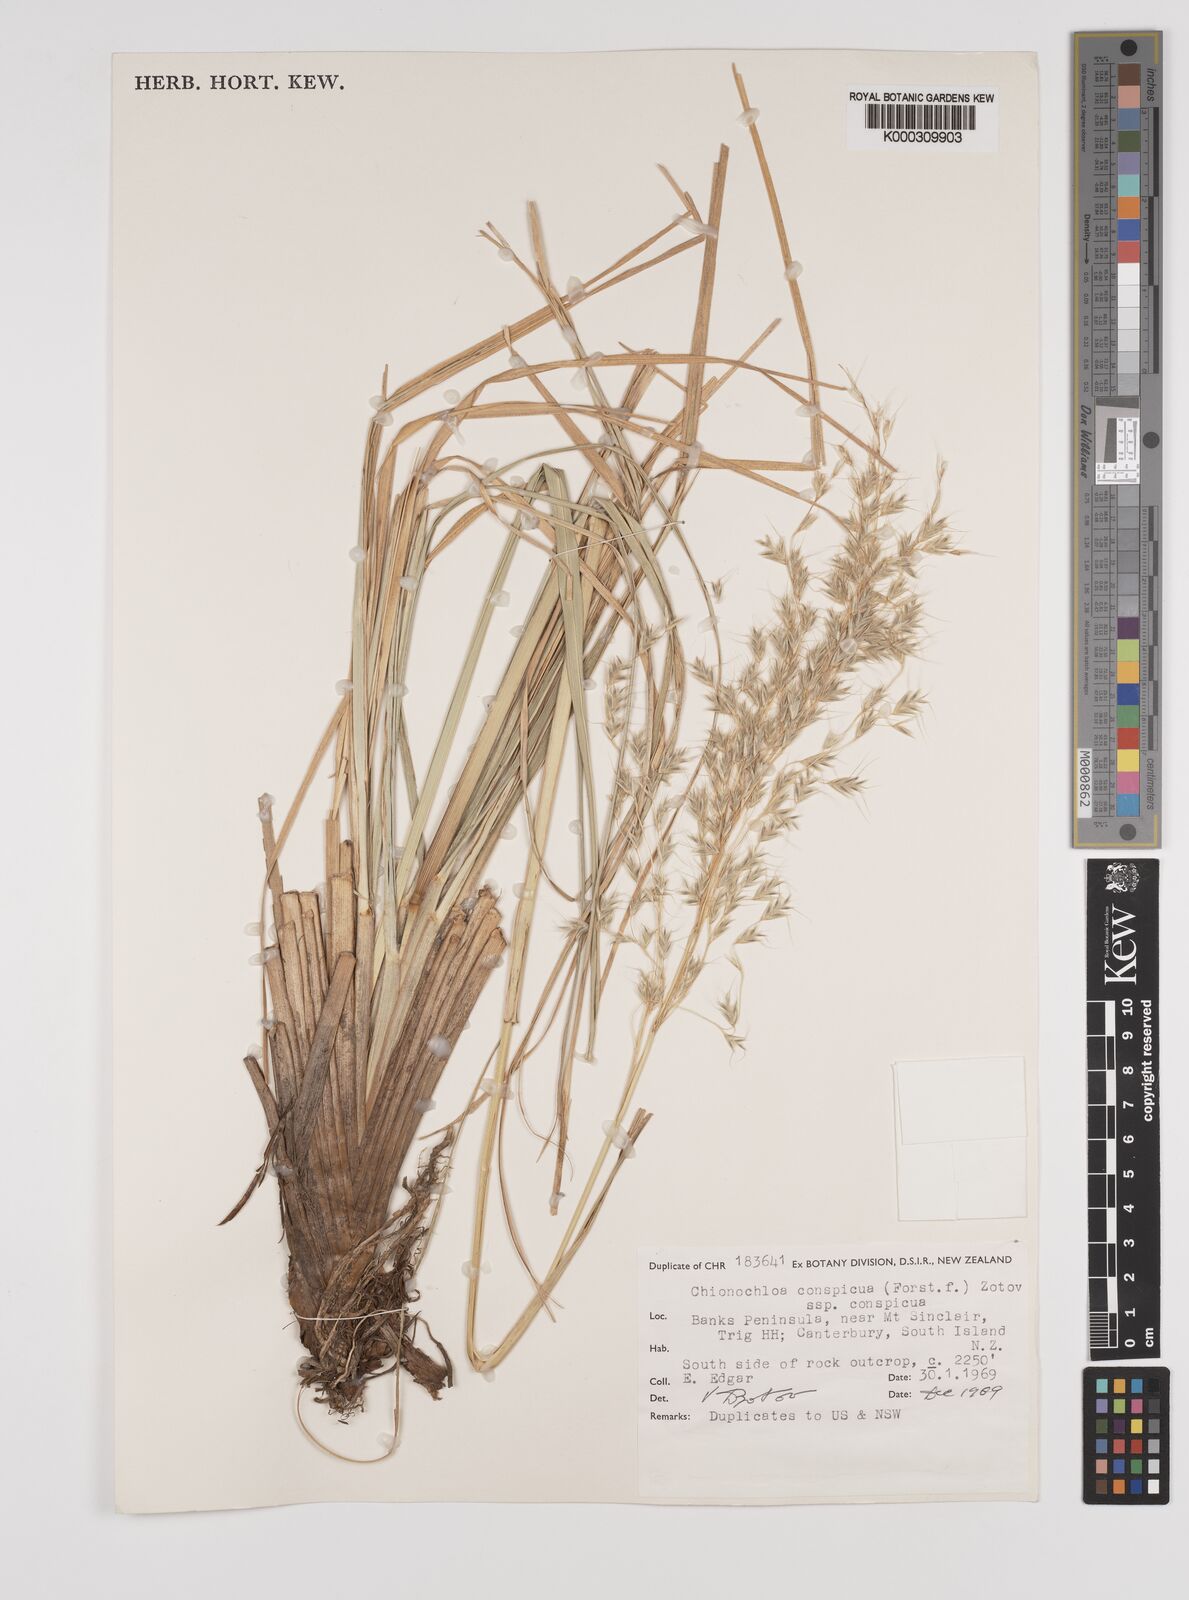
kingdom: Plantae
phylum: Tracheophyta
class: Liliopsida
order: Poales
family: Poaceae
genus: Chionochloa
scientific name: Chionochloa conspicua
